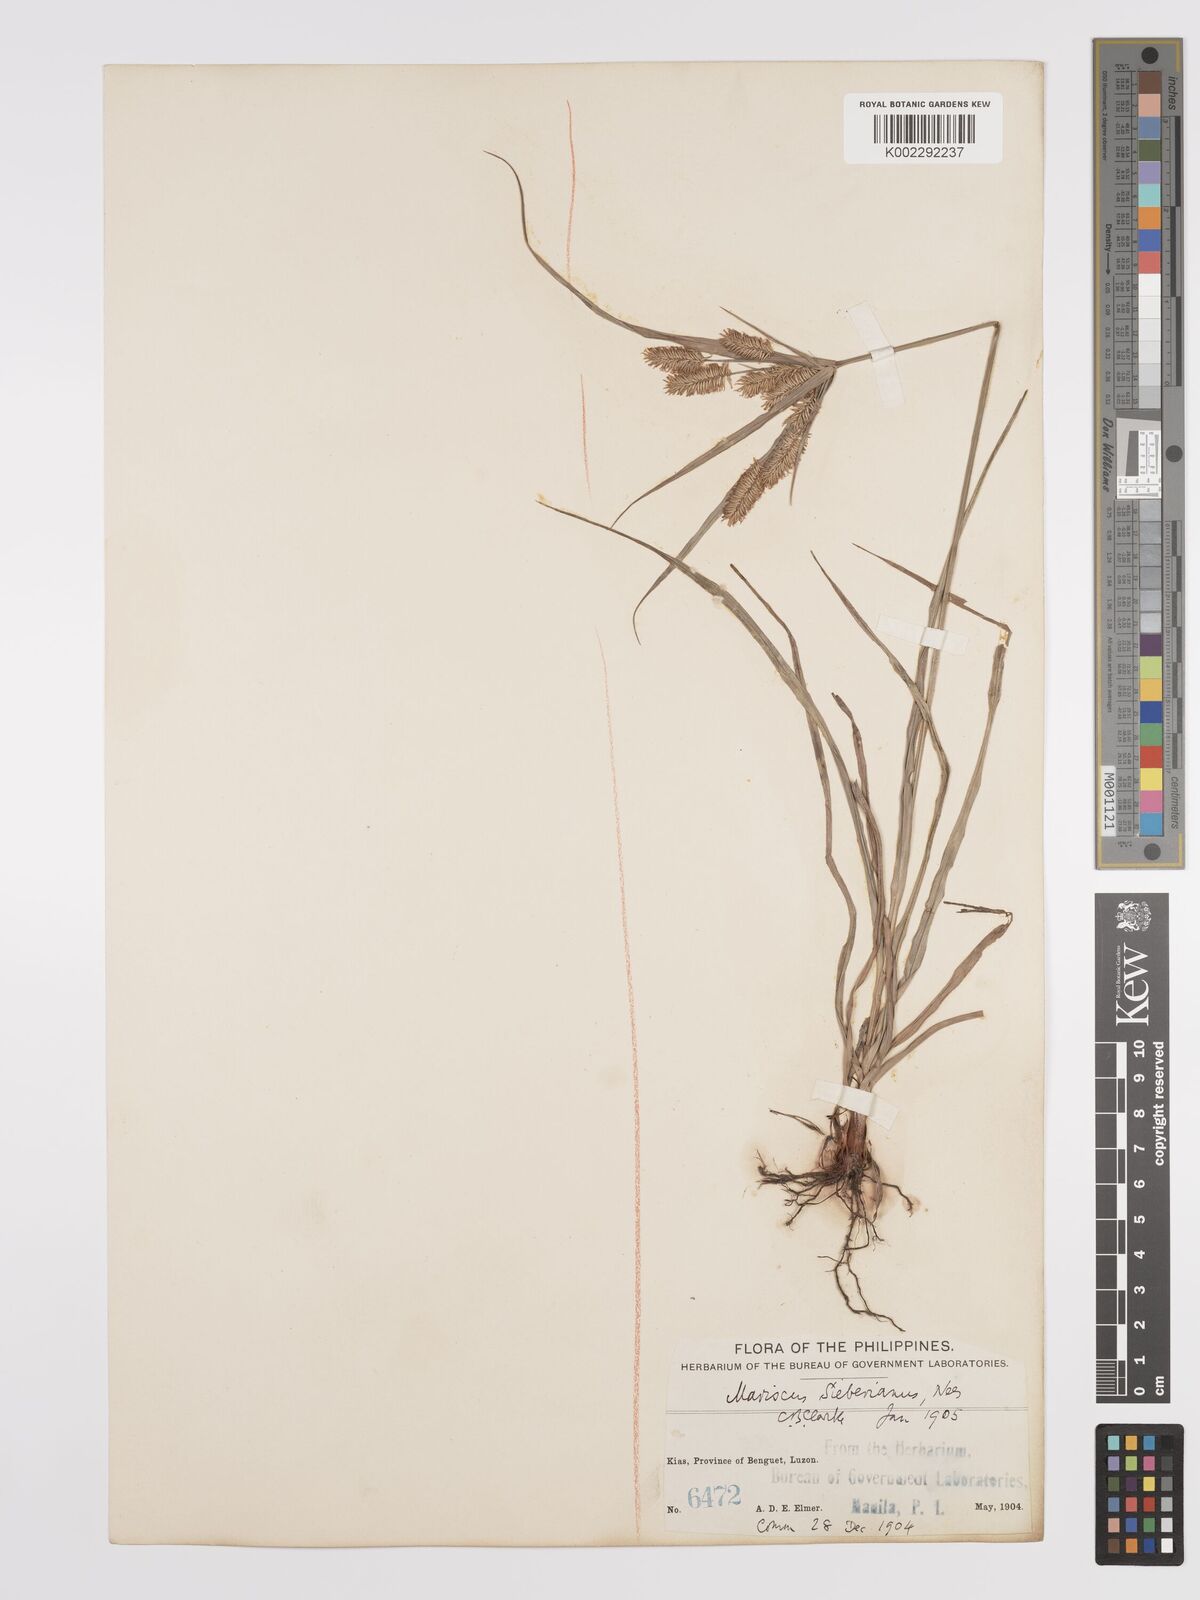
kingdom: Plantae
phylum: Tracheophyta
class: Liliopsida
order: Poales
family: Cyperaceae
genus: Cyperus
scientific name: Cyperus cyperoides
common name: Pacific island flat sedge
